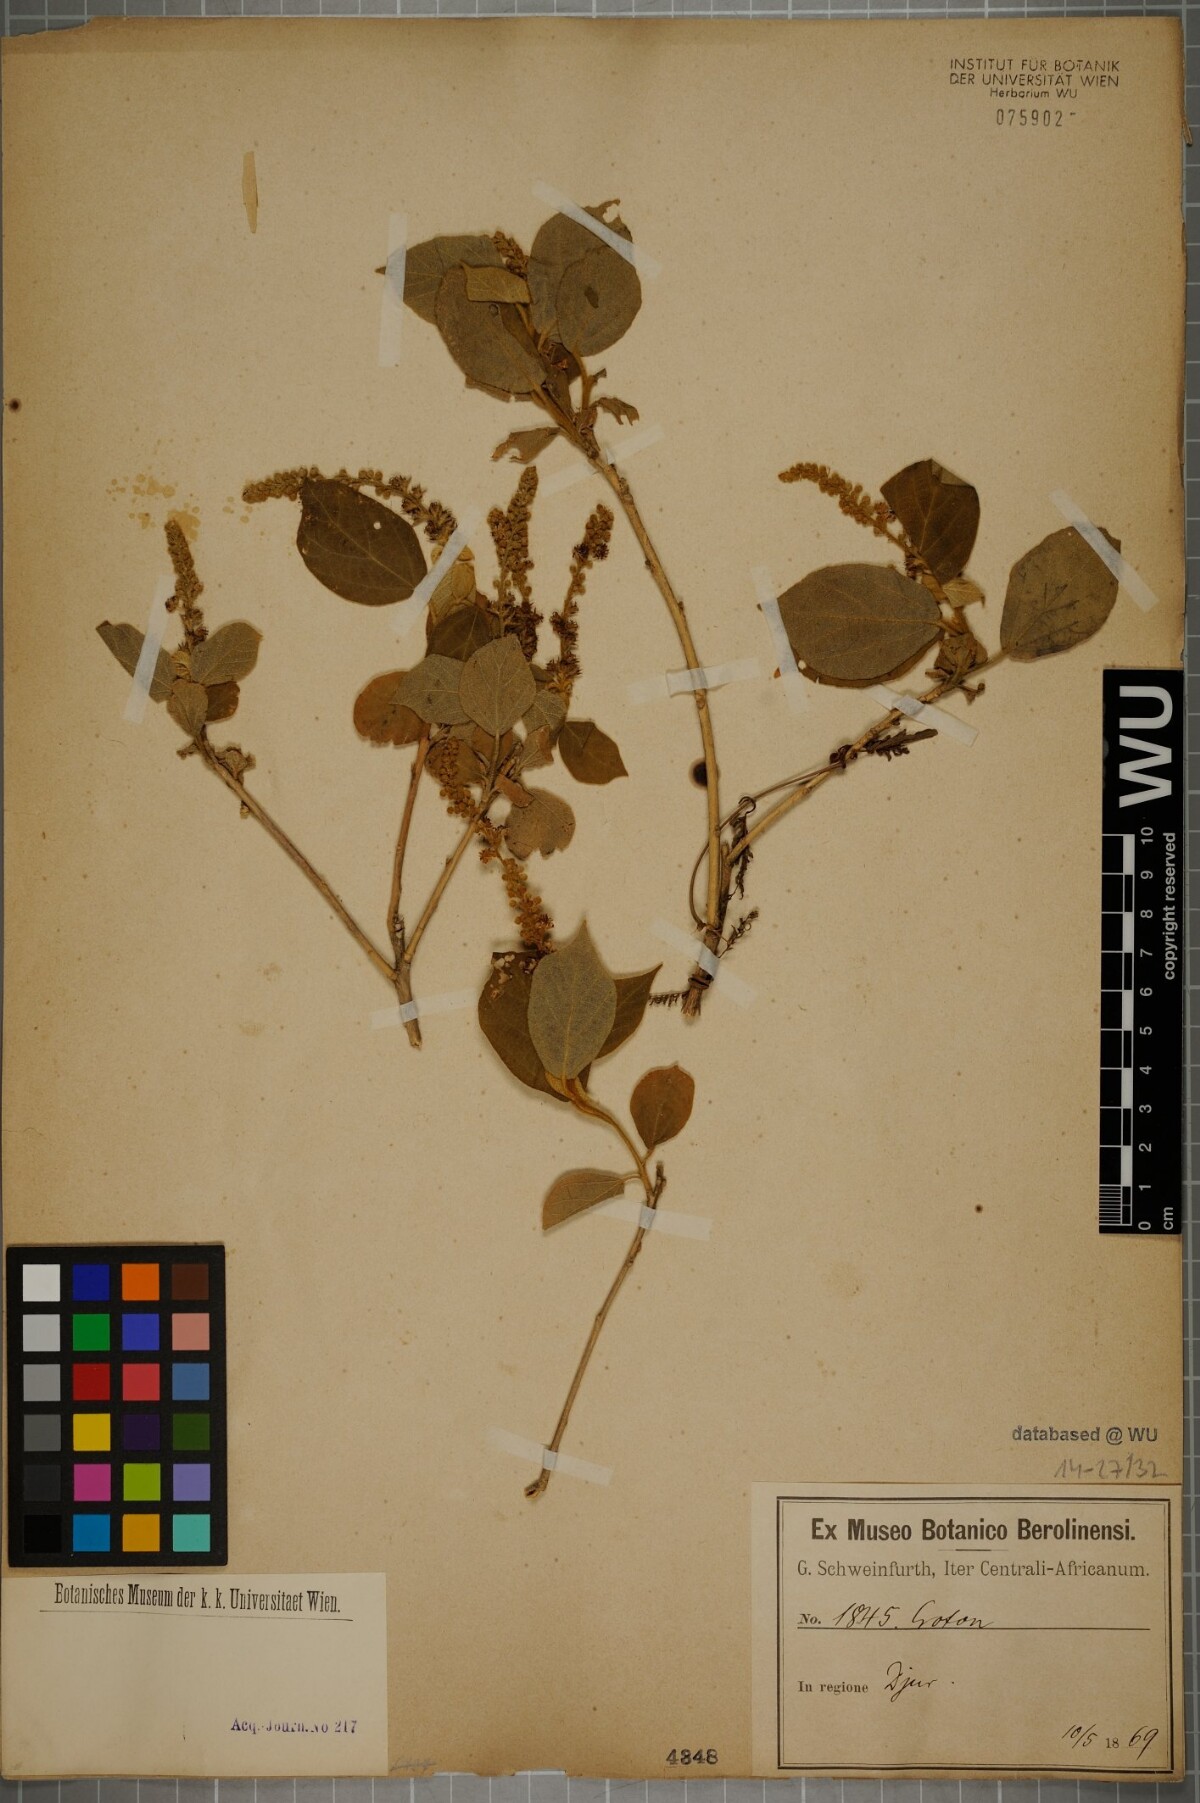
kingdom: Plantae
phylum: Tracheophyta
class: Magnoliopsida
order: Malpighiales
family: Euphorbiaceae
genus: Croton
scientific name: Croton
